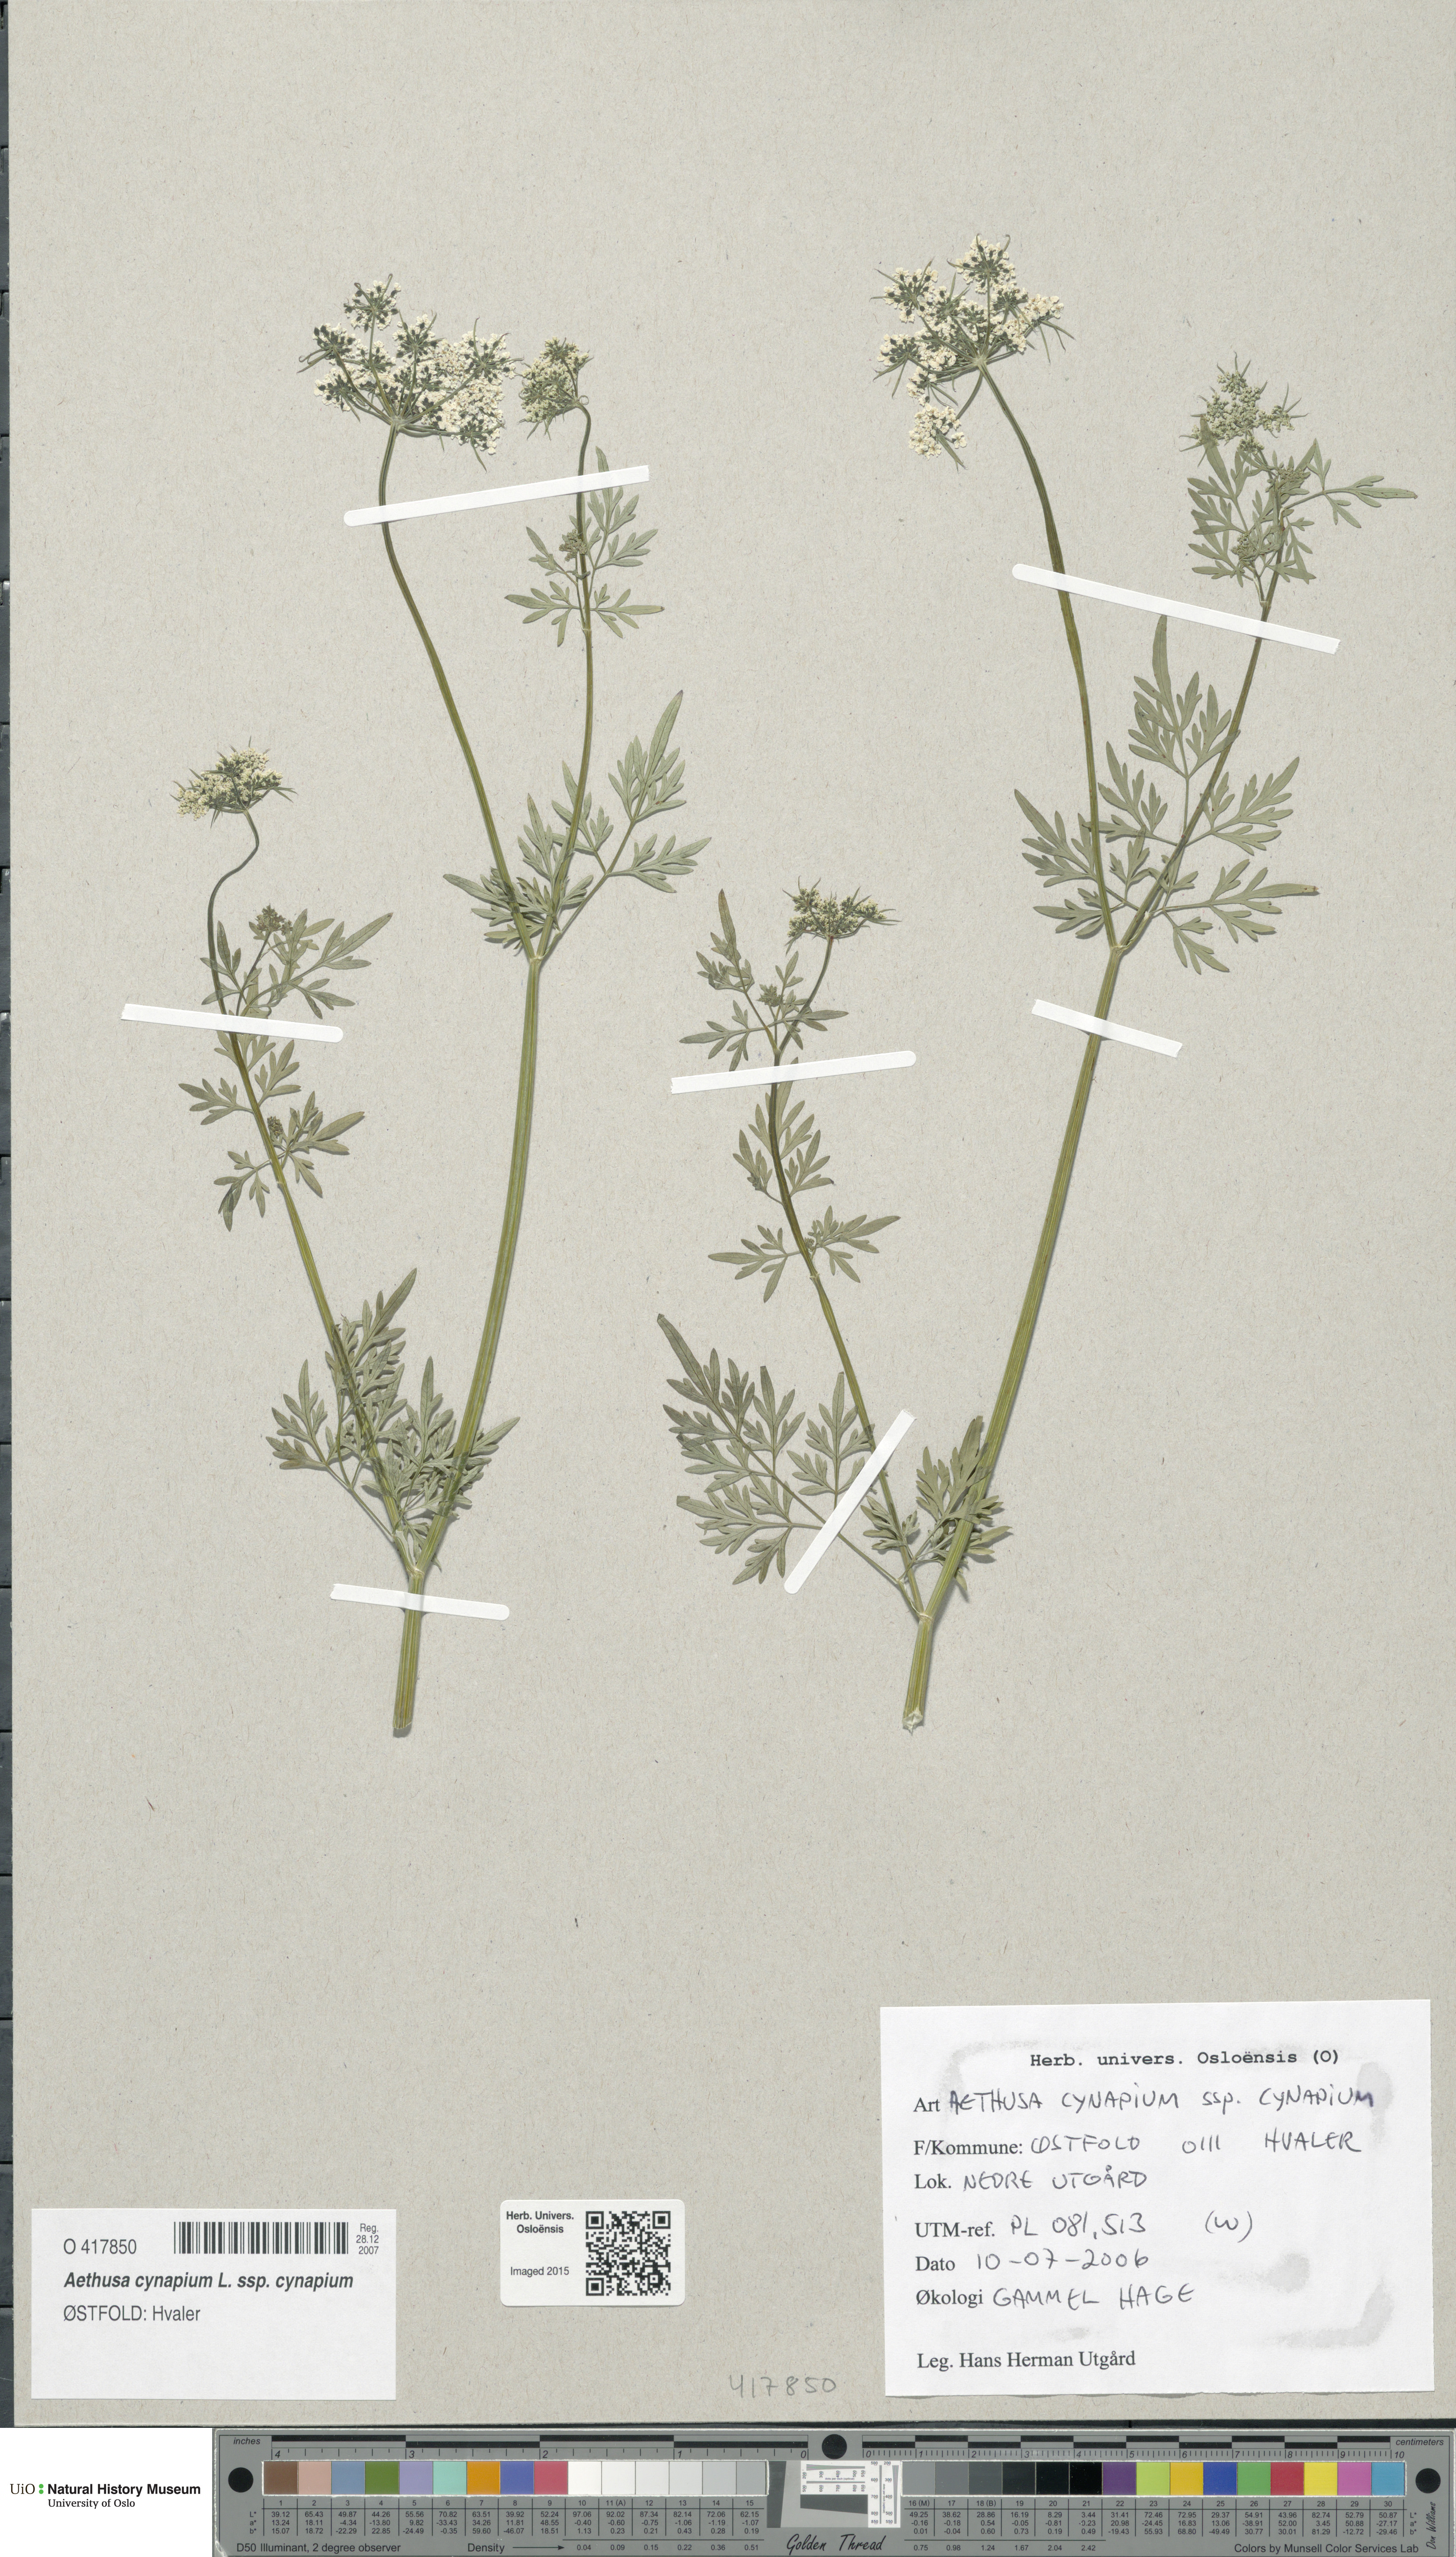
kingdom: Plantae
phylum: Tracheophyta
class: Magnoliopsida
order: Apiales
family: Apiaceae
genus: Aethusa
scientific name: Aethusa cynapium
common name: Fool's parsley
